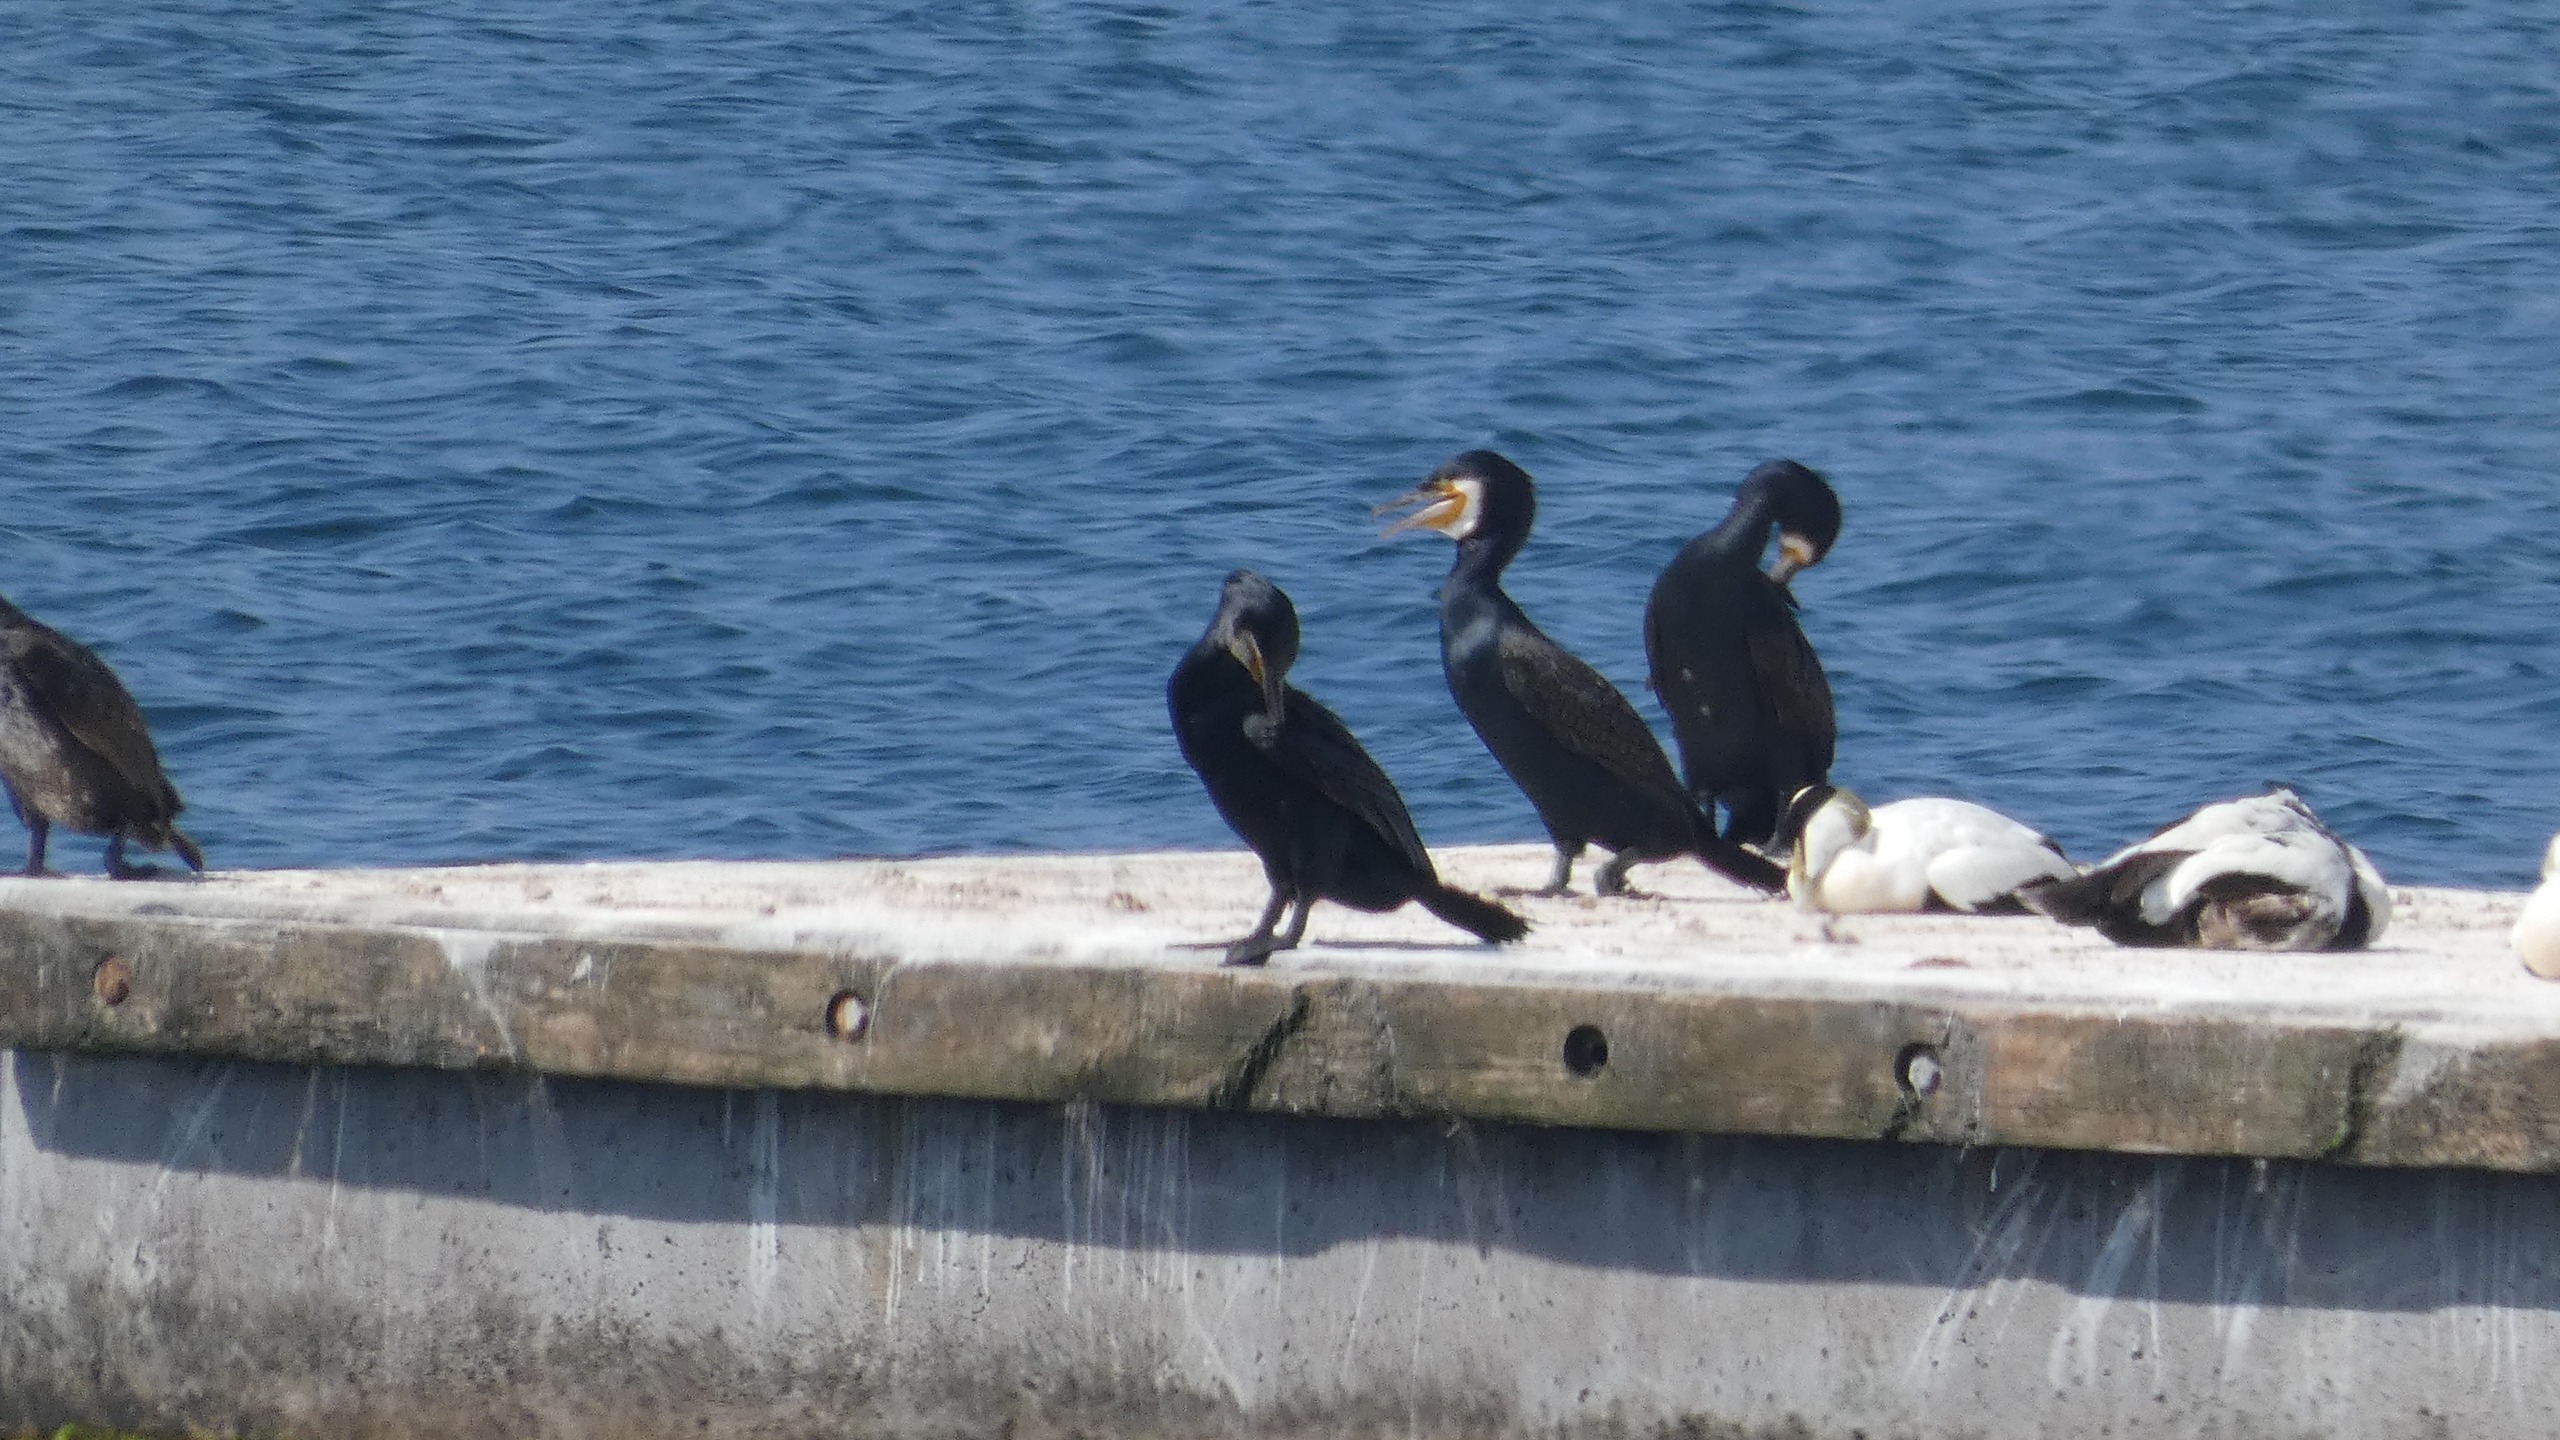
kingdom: Animalia
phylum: Chordata
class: Aves
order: Suliformes
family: Phalacrocoracidae
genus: Phalacrocorax
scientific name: Phalacrocorax carbo
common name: Skarv
